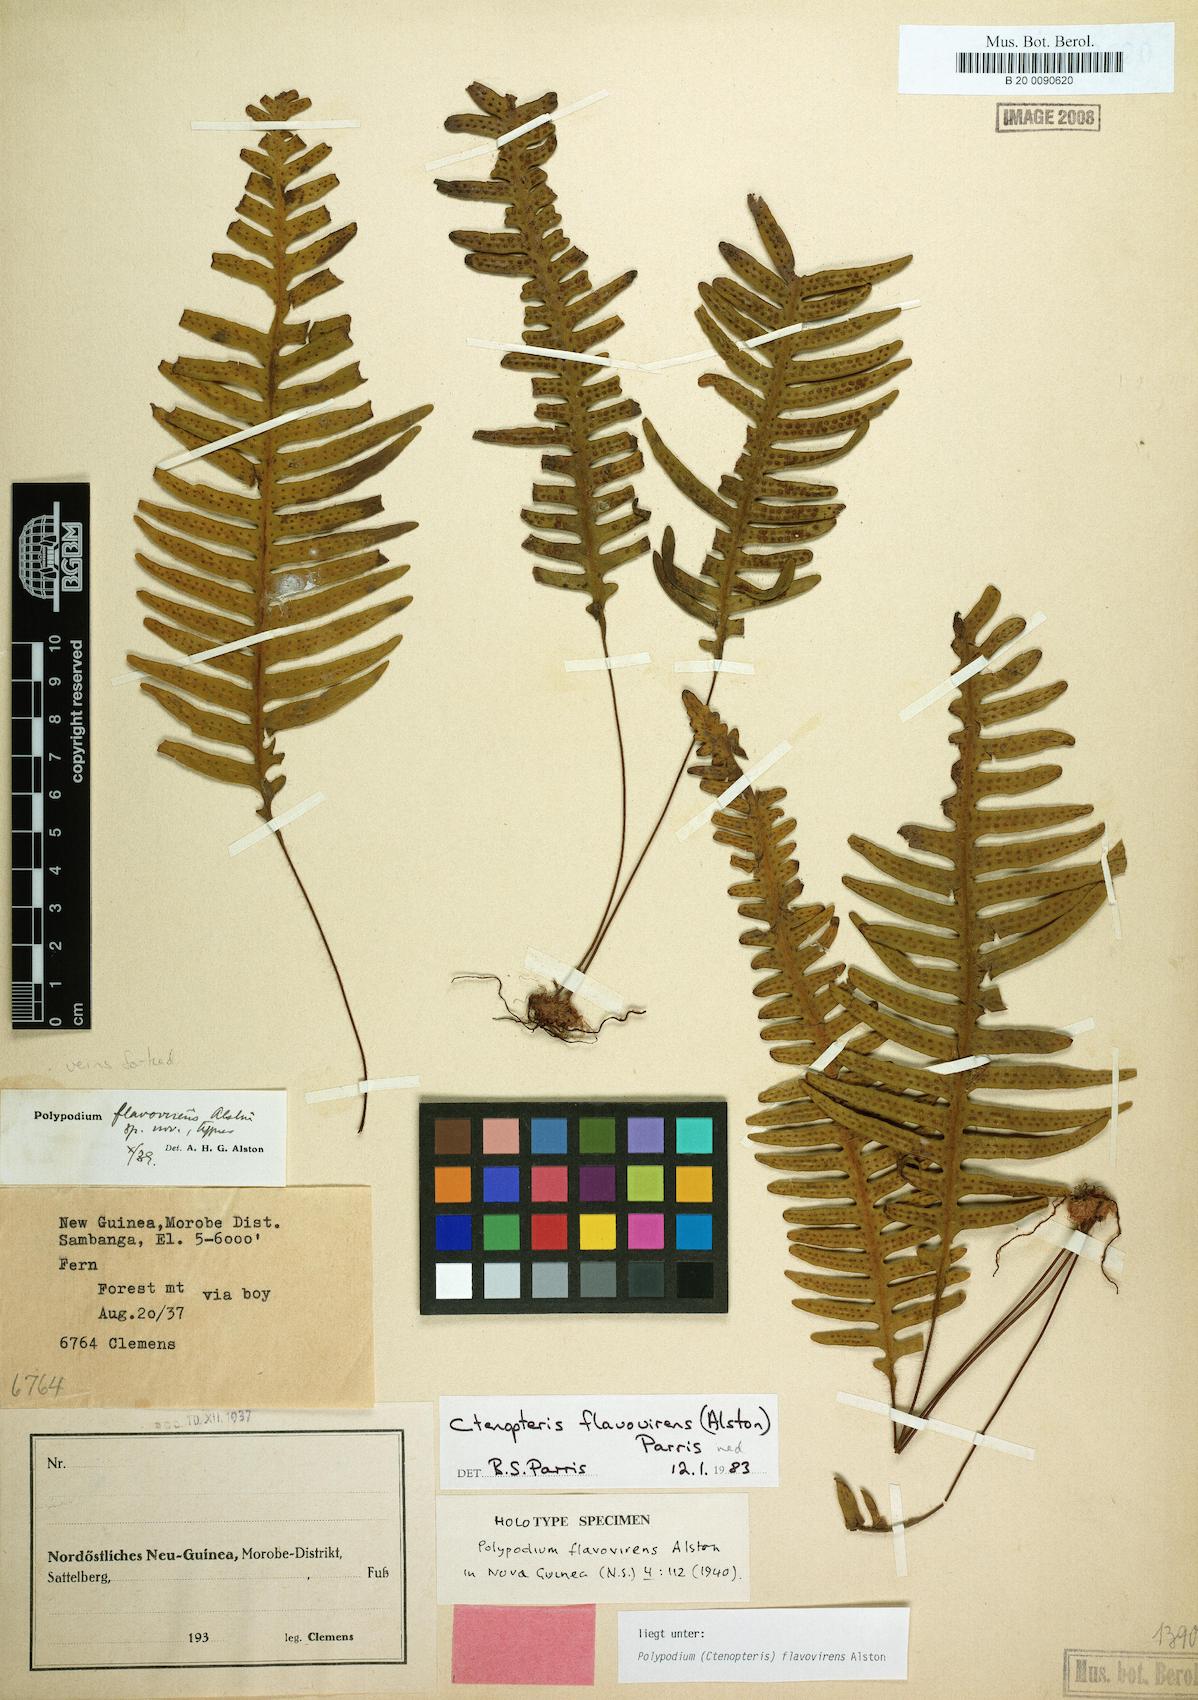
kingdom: Plantae
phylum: Tracheophyta
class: Polypodiopsida
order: Polypodiales
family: Polypodiaceae
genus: Oreogrammitis
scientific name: Oreogrammitis flavovirens
